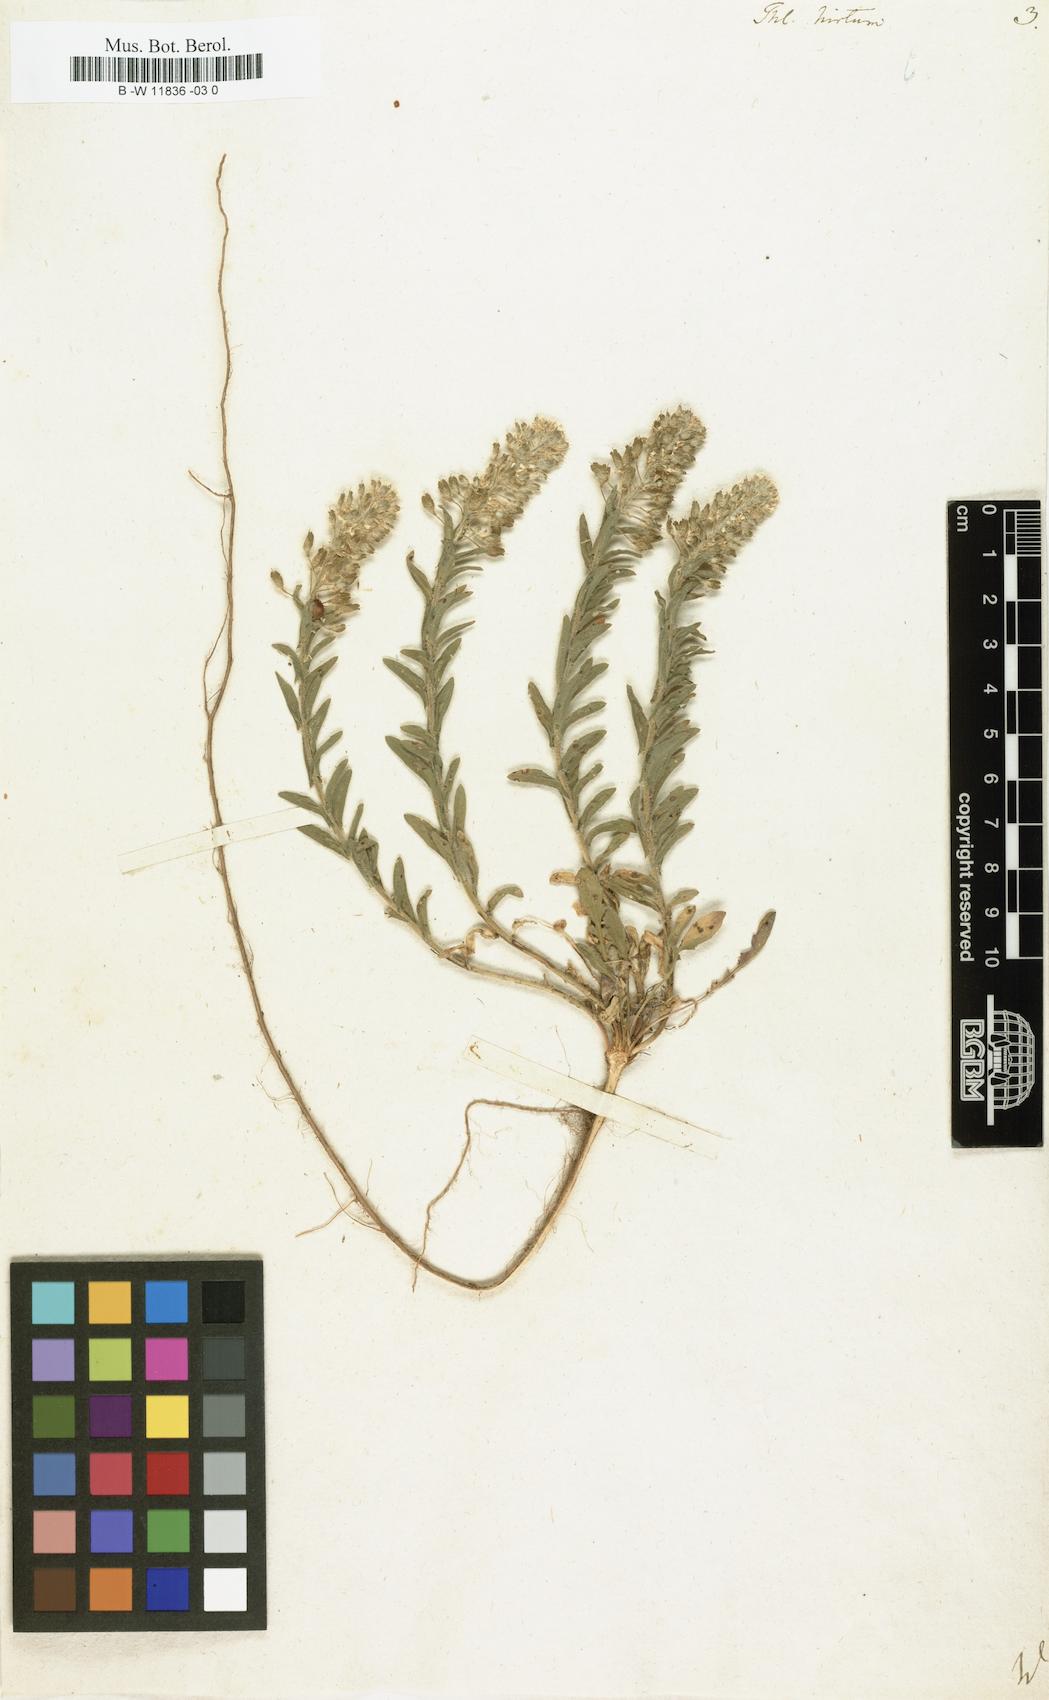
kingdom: Plantae
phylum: Tracheophyta
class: Magnoliopsida
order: Brassicales
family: Brassicaceae
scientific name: Brassicaceae
